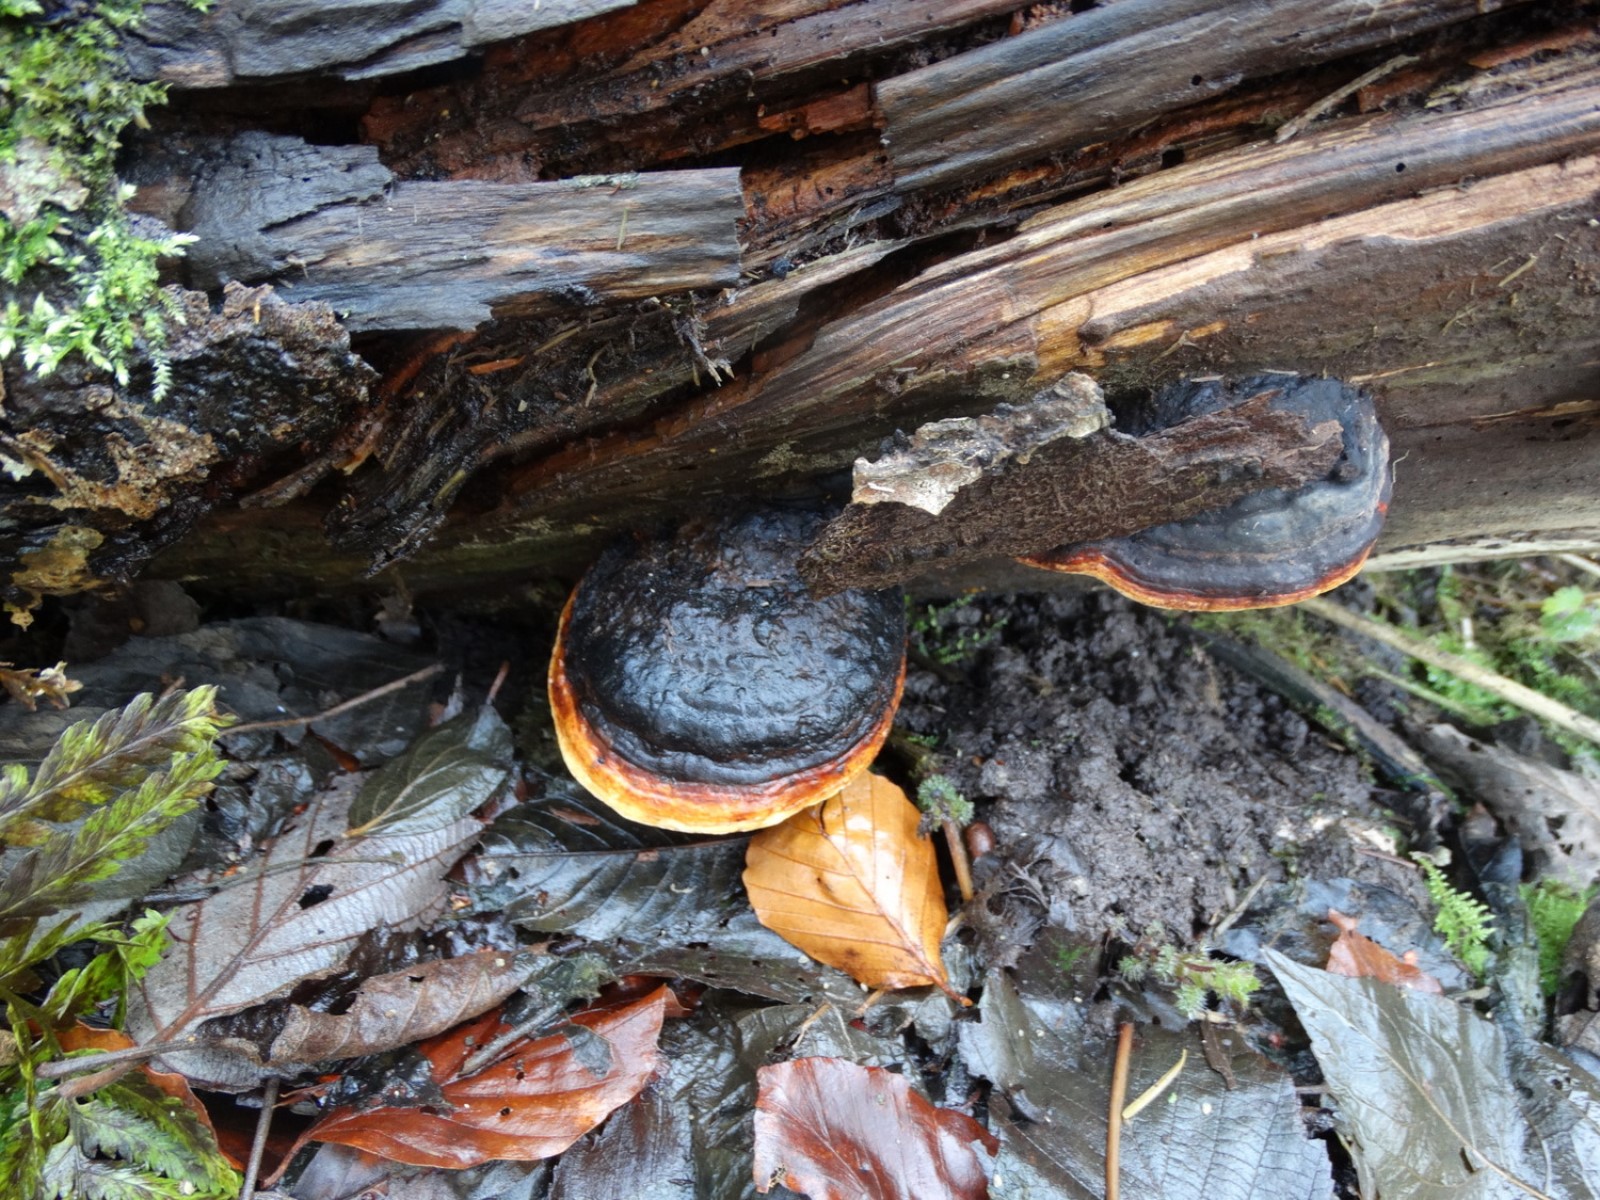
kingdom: Fungi
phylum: Basidiomycota
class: Agaricomycetes
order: Polyporales
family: Fomitopsidaceae
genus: Fomitopsis
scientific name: Fomitopsis pinicola
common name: randbæltet hovporesvamp
